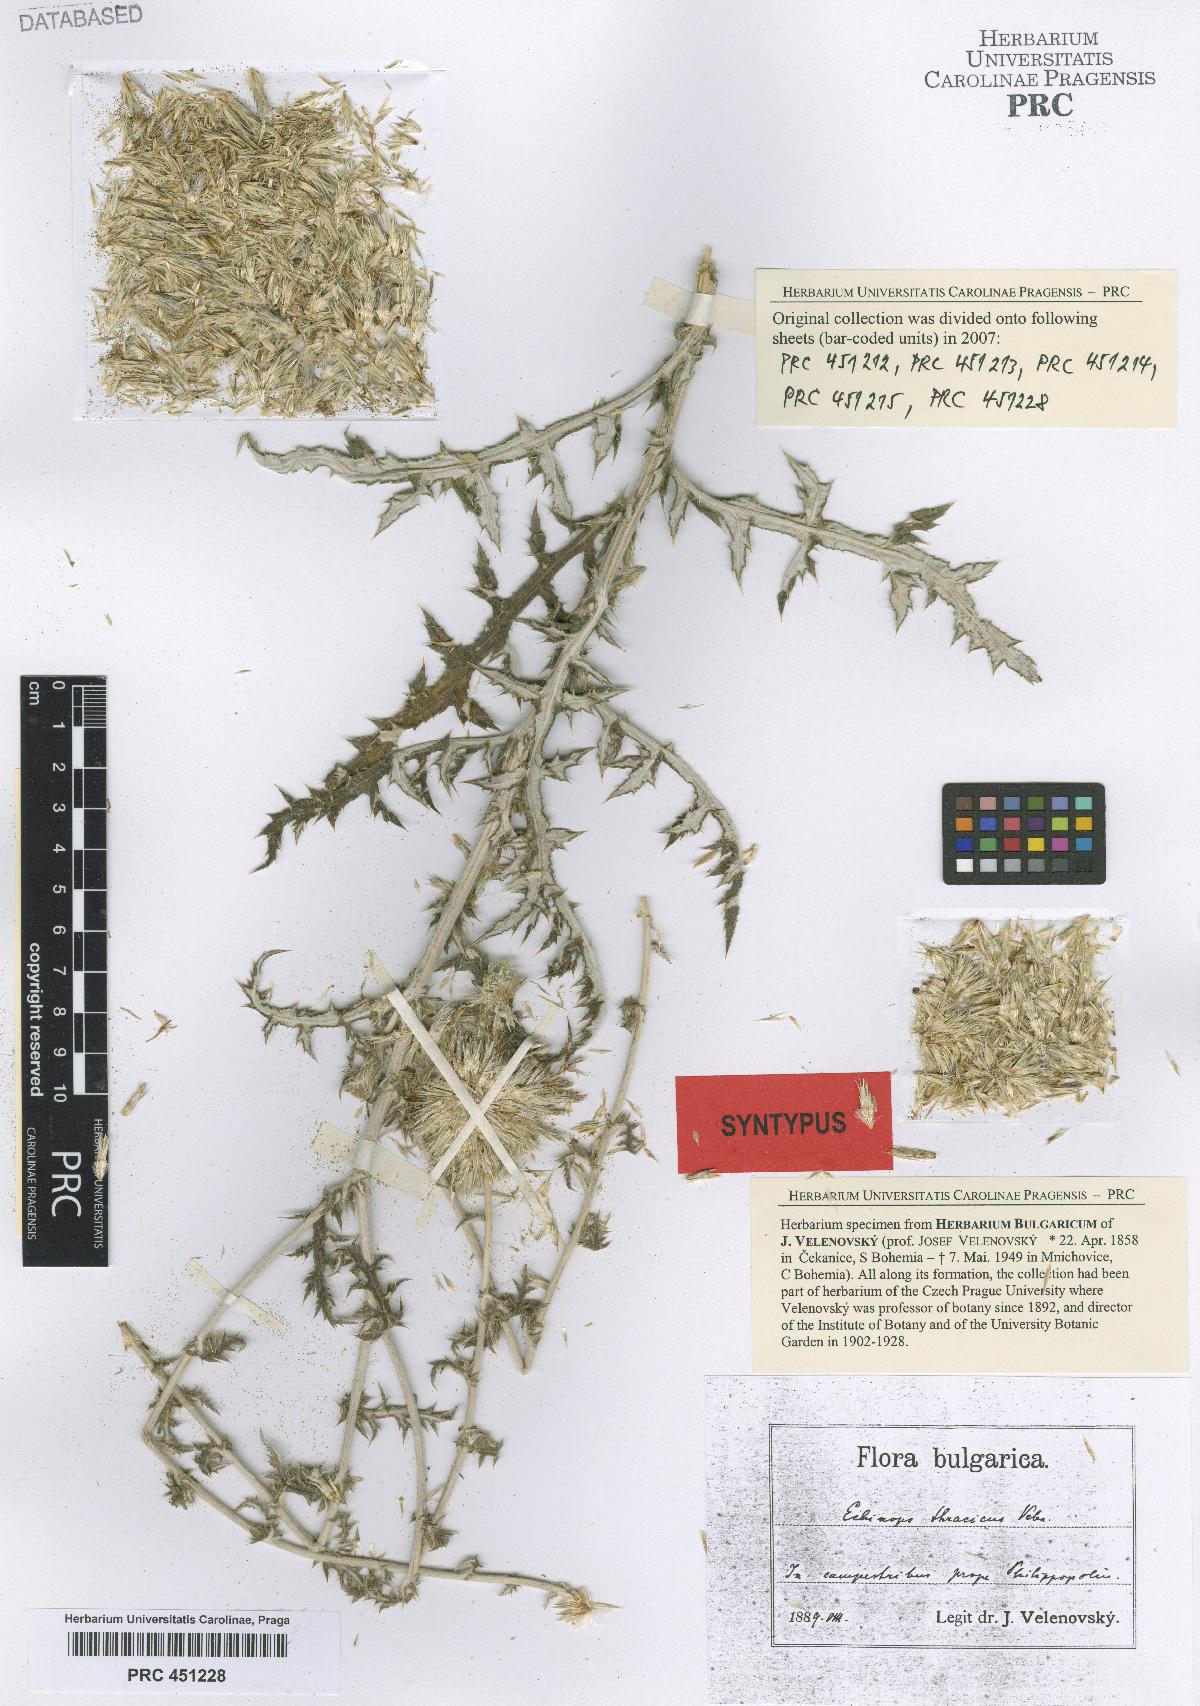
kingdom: Plantae
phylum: Tracheophyta
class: Magnoliopsida
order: Asterales
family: Asteraceae
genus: Echinops
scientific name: Echinops ritro
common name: Globe thistle
